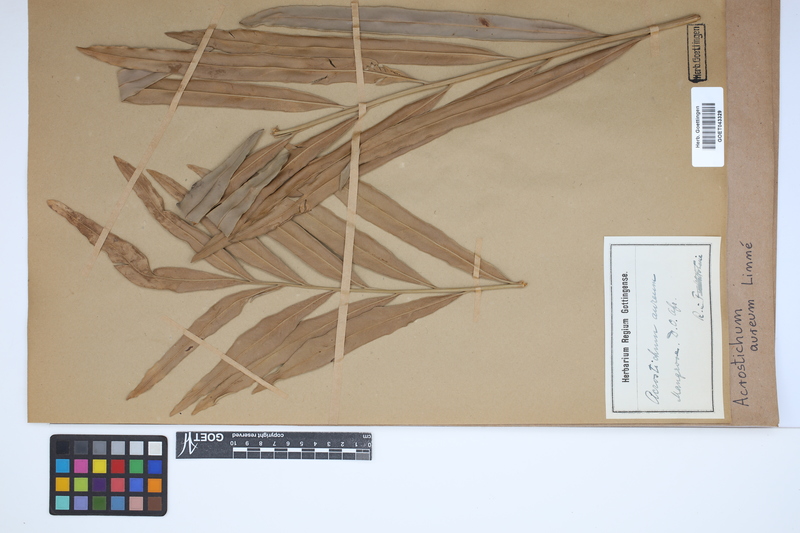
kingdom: Plantae
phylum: Tracheophyta
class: Polypodiopsida
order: Polypodiales
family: Pteridaceae
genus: Acrostichum
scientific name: Acrostichum aureum
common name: Leather fern
